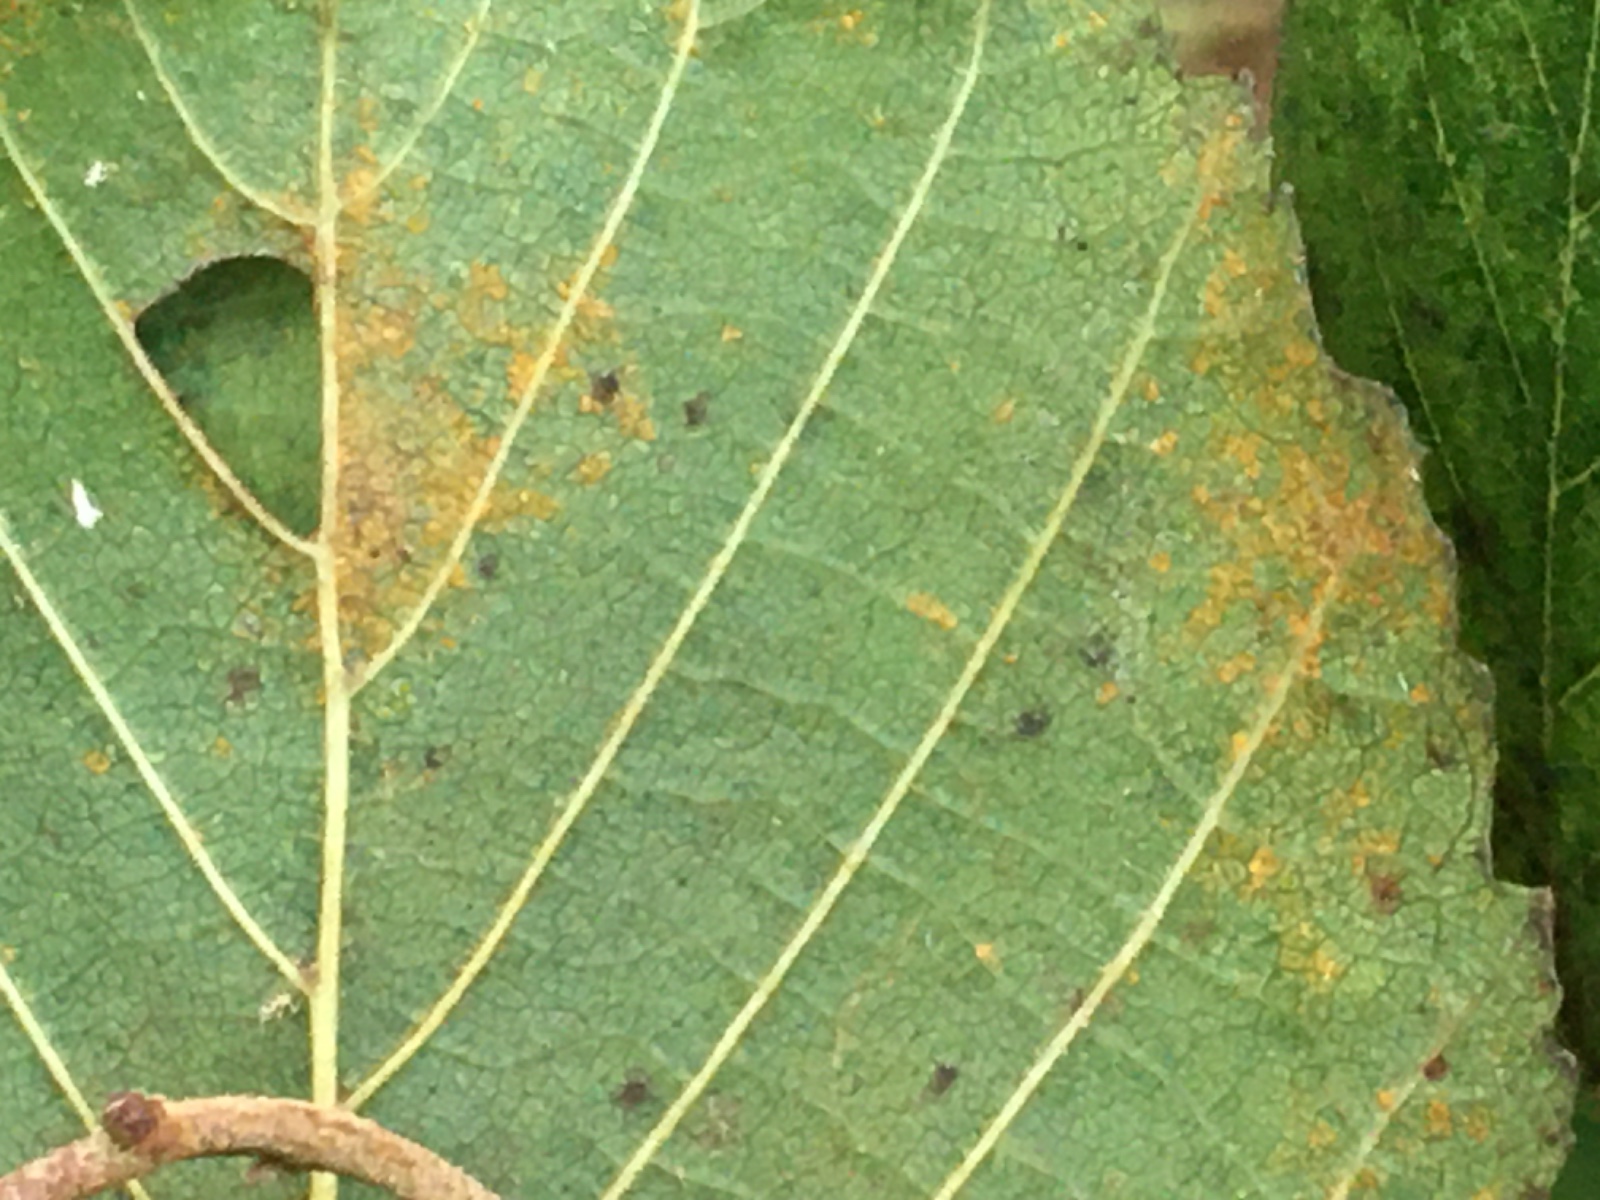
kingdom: Fungi
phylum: Basidiomycota
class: Pucciniomycetes
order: Pucciniales
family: Pucciniastraceae
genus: Melampsoridium
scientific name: Melampsoridium hiratsukanum
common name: Alder rust
